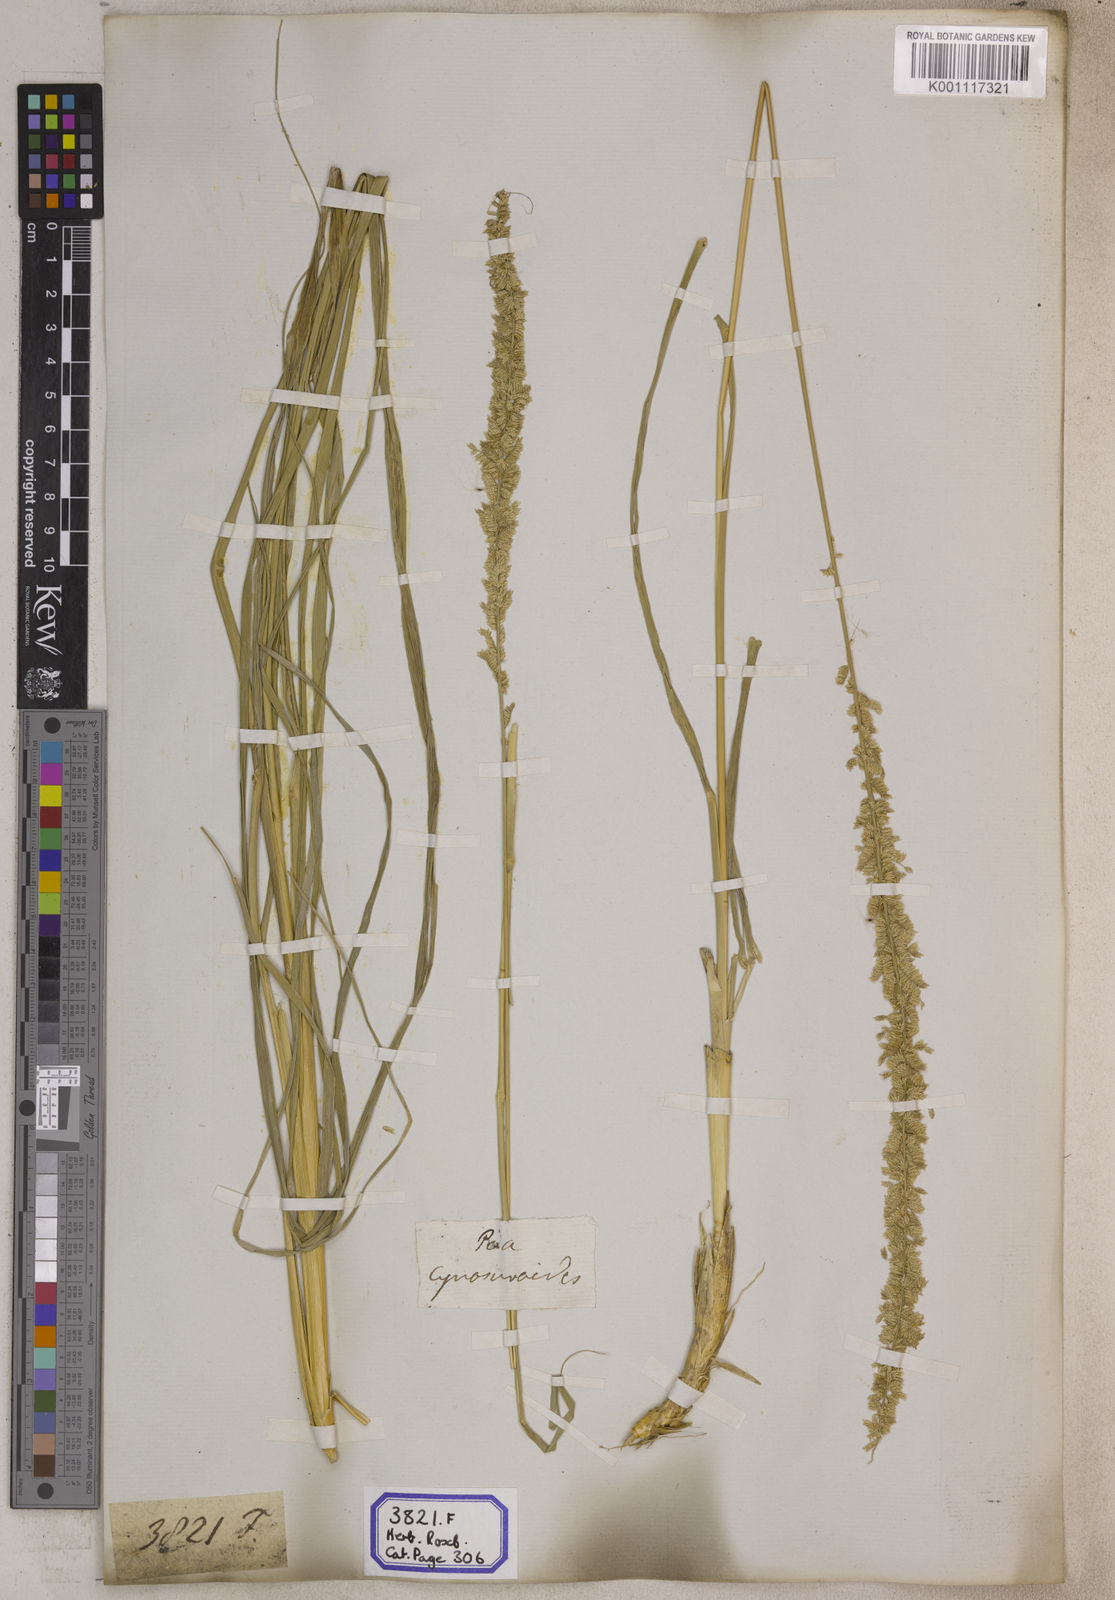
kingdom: Plantae
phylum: Tracheophyta
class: Liliopsida
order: Poales
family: Poaceae
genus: Eragrostis
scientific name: Eragrostis
